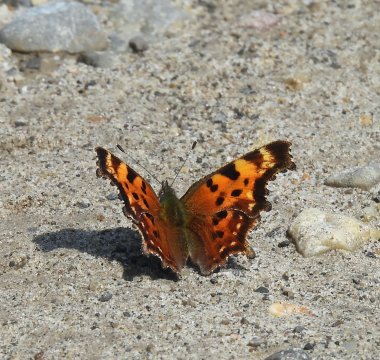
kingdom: Animalia
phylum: Arthropoda
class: Insecta
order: Lepidoptera
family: Nymphalidae
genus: Polygonia
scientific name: Polygonia faunus
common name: Green Comma
